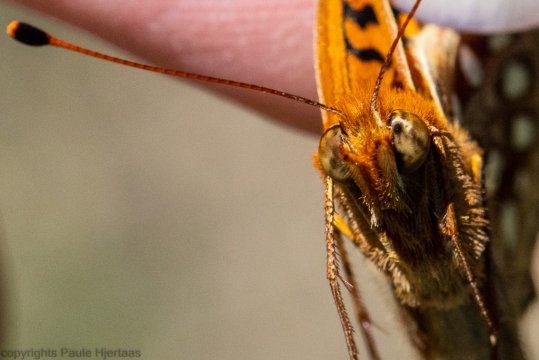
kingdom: Animalia
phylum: Arthropoda
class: Insecta
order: Lepidoptera
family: Nymphalidae
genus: Speyeria
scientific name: Speyeria atlantis
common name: Northwestern Fritillary
